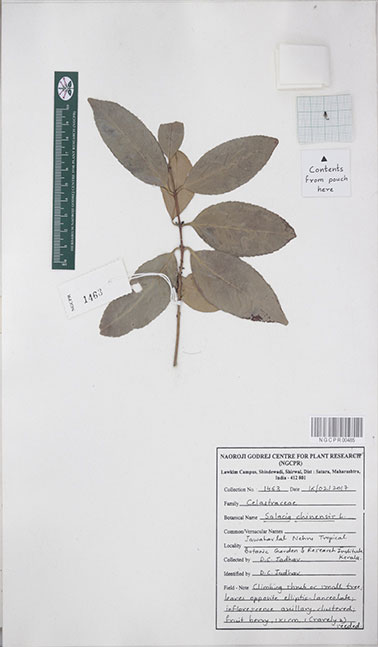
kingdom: Plantae
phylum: Tracheophyta
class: Magnoliopsida
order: Celastrales
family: Celastraceae
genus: Salacia
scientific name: Salacia chinensis
